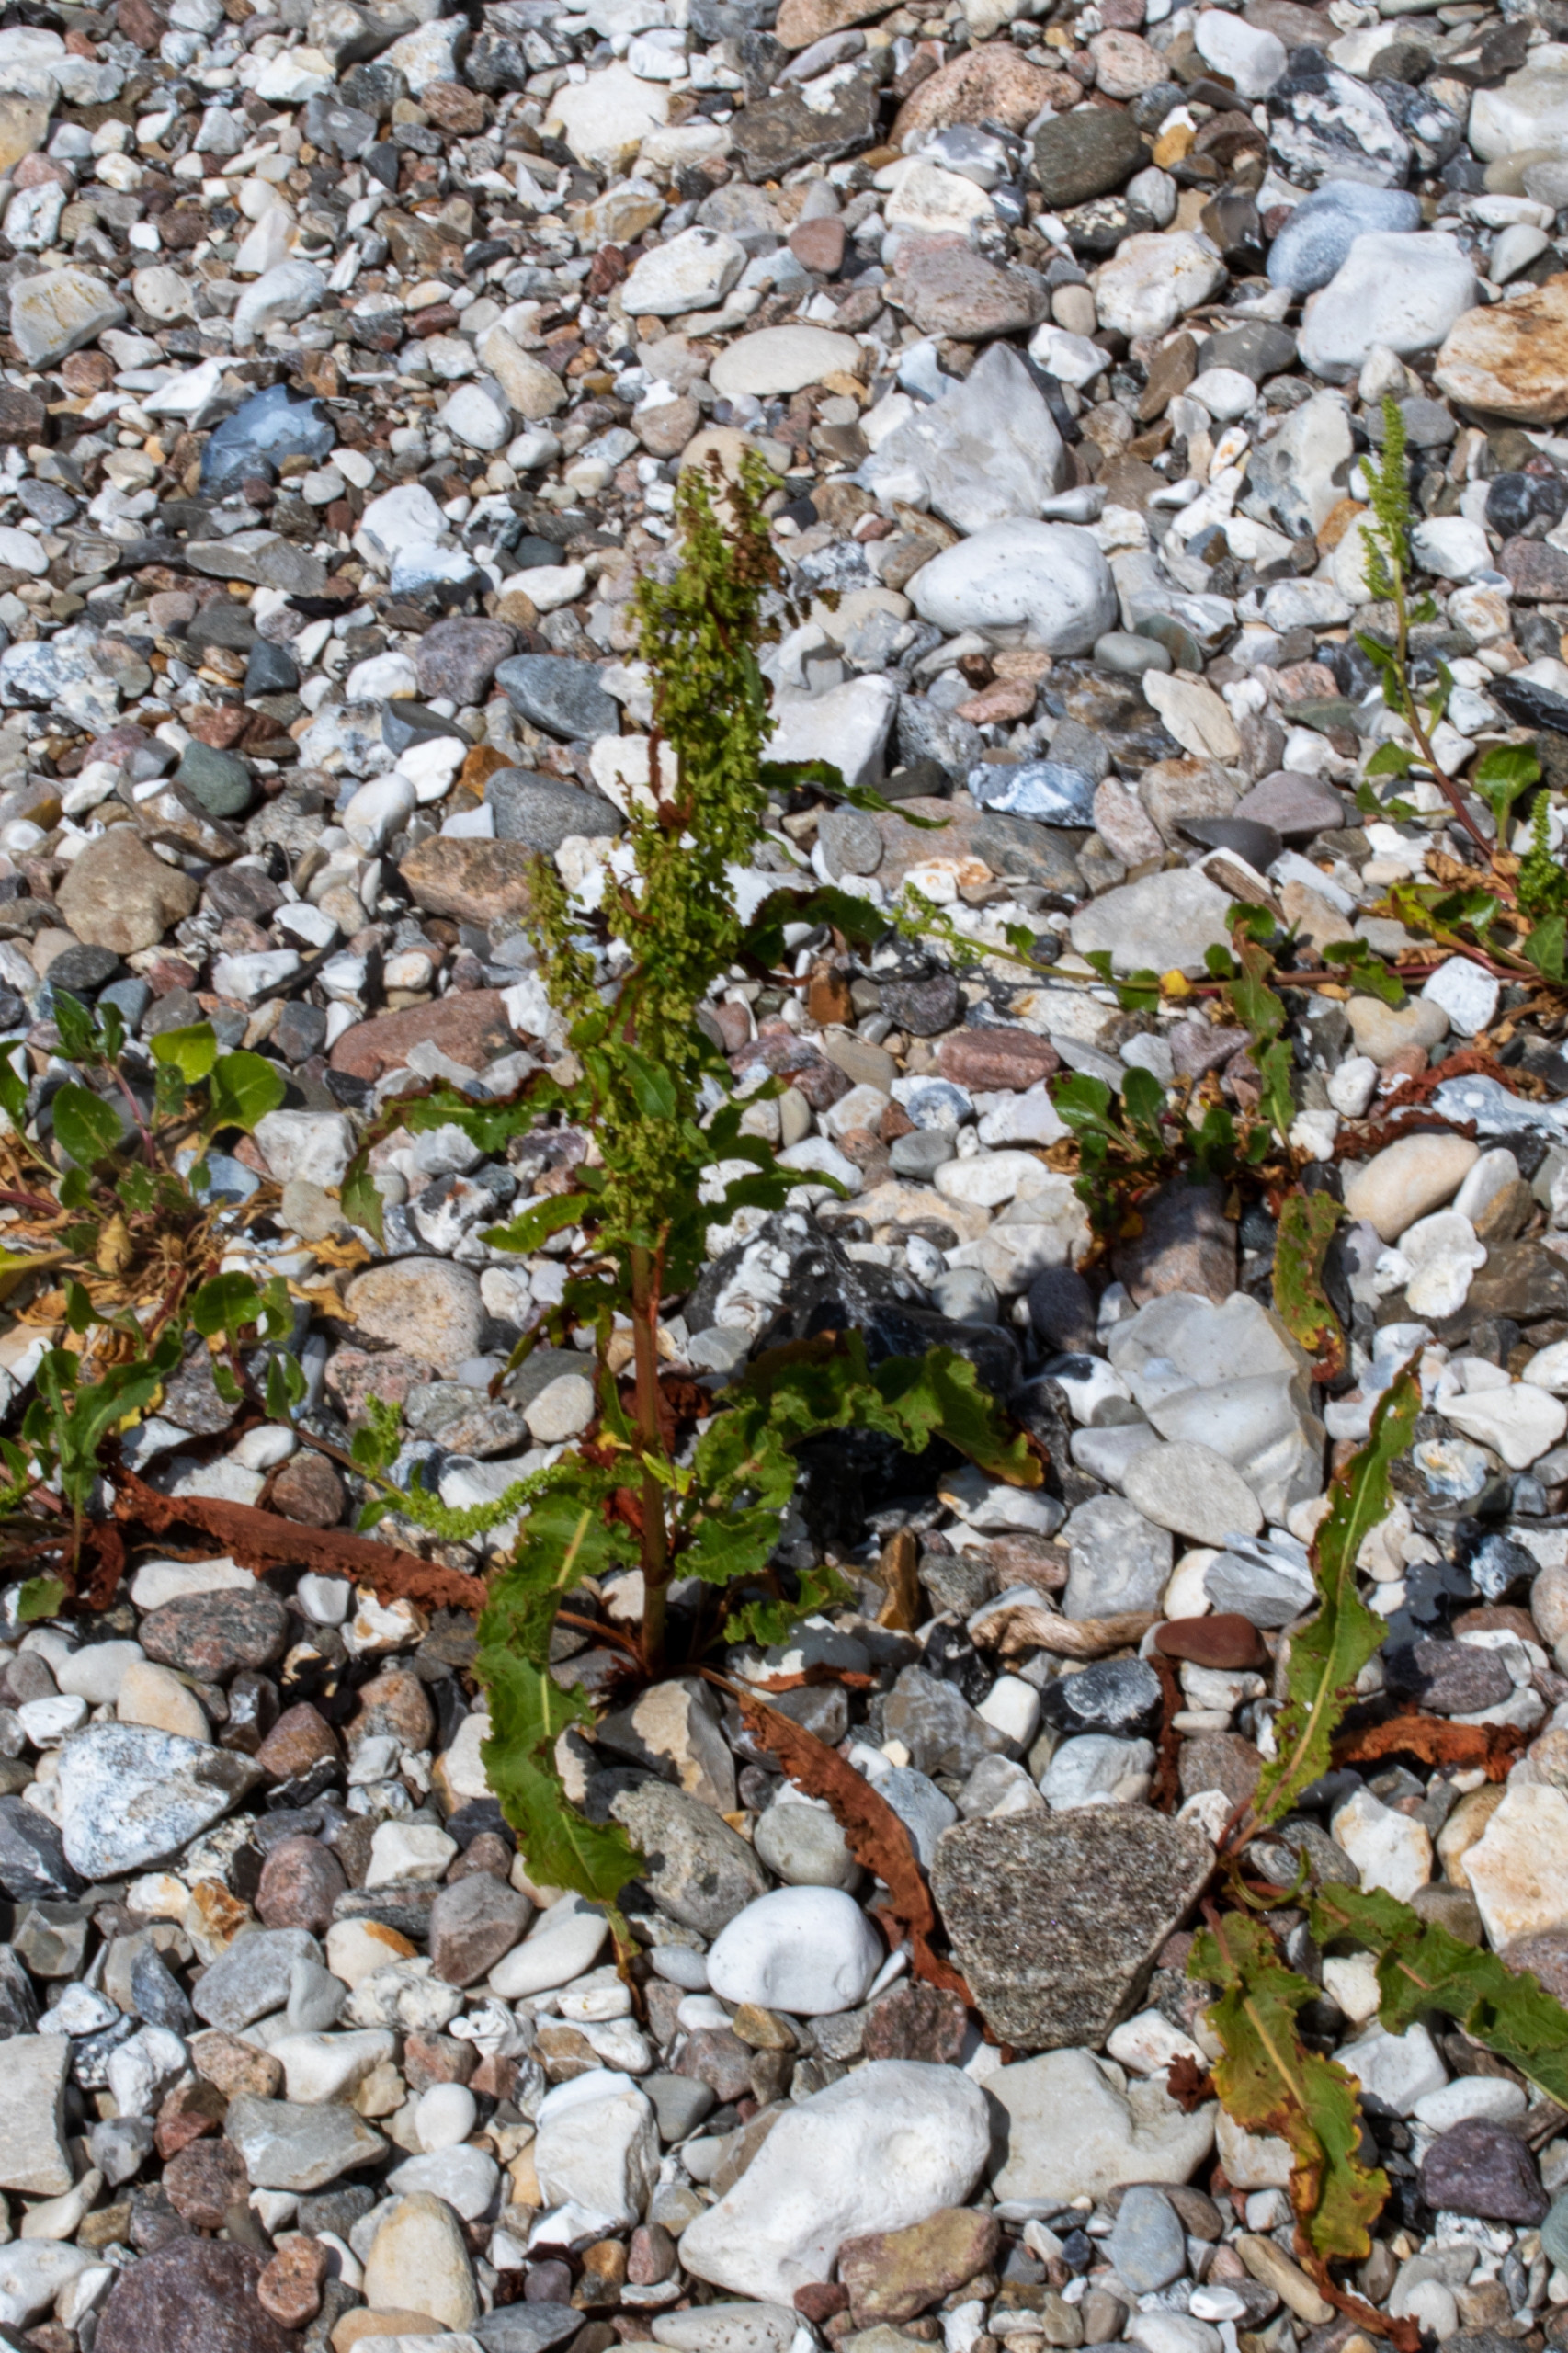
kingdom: Plantae
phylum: Tracheophyta
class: Magnoliopsida
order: Caryophyllales
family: Polygonaceae
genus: Rumex
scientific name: Rumex crispus
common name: Kruset skræppe
